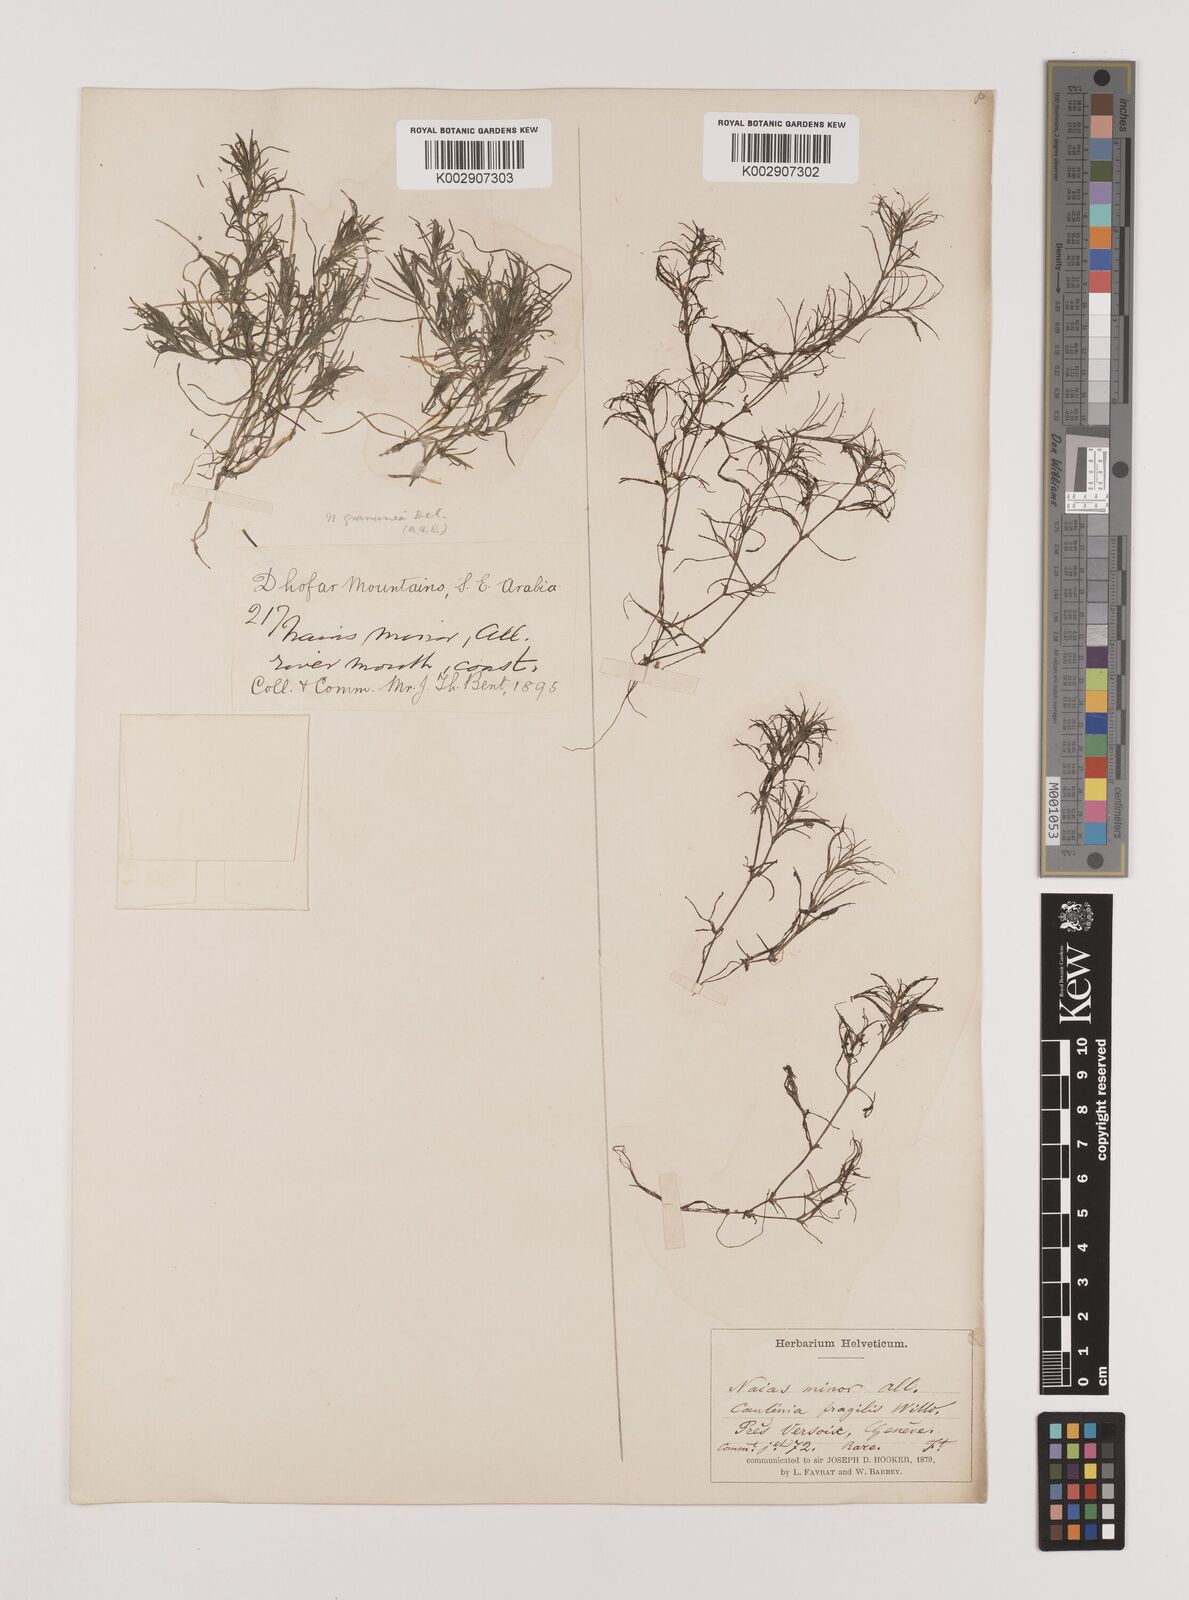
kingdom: Plantae
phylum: Tracheophyta
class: Liliopsida
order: Alismatales
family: Hydrocharitaceae
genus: Najas
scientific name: Najas minor
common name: Brittle naiad
